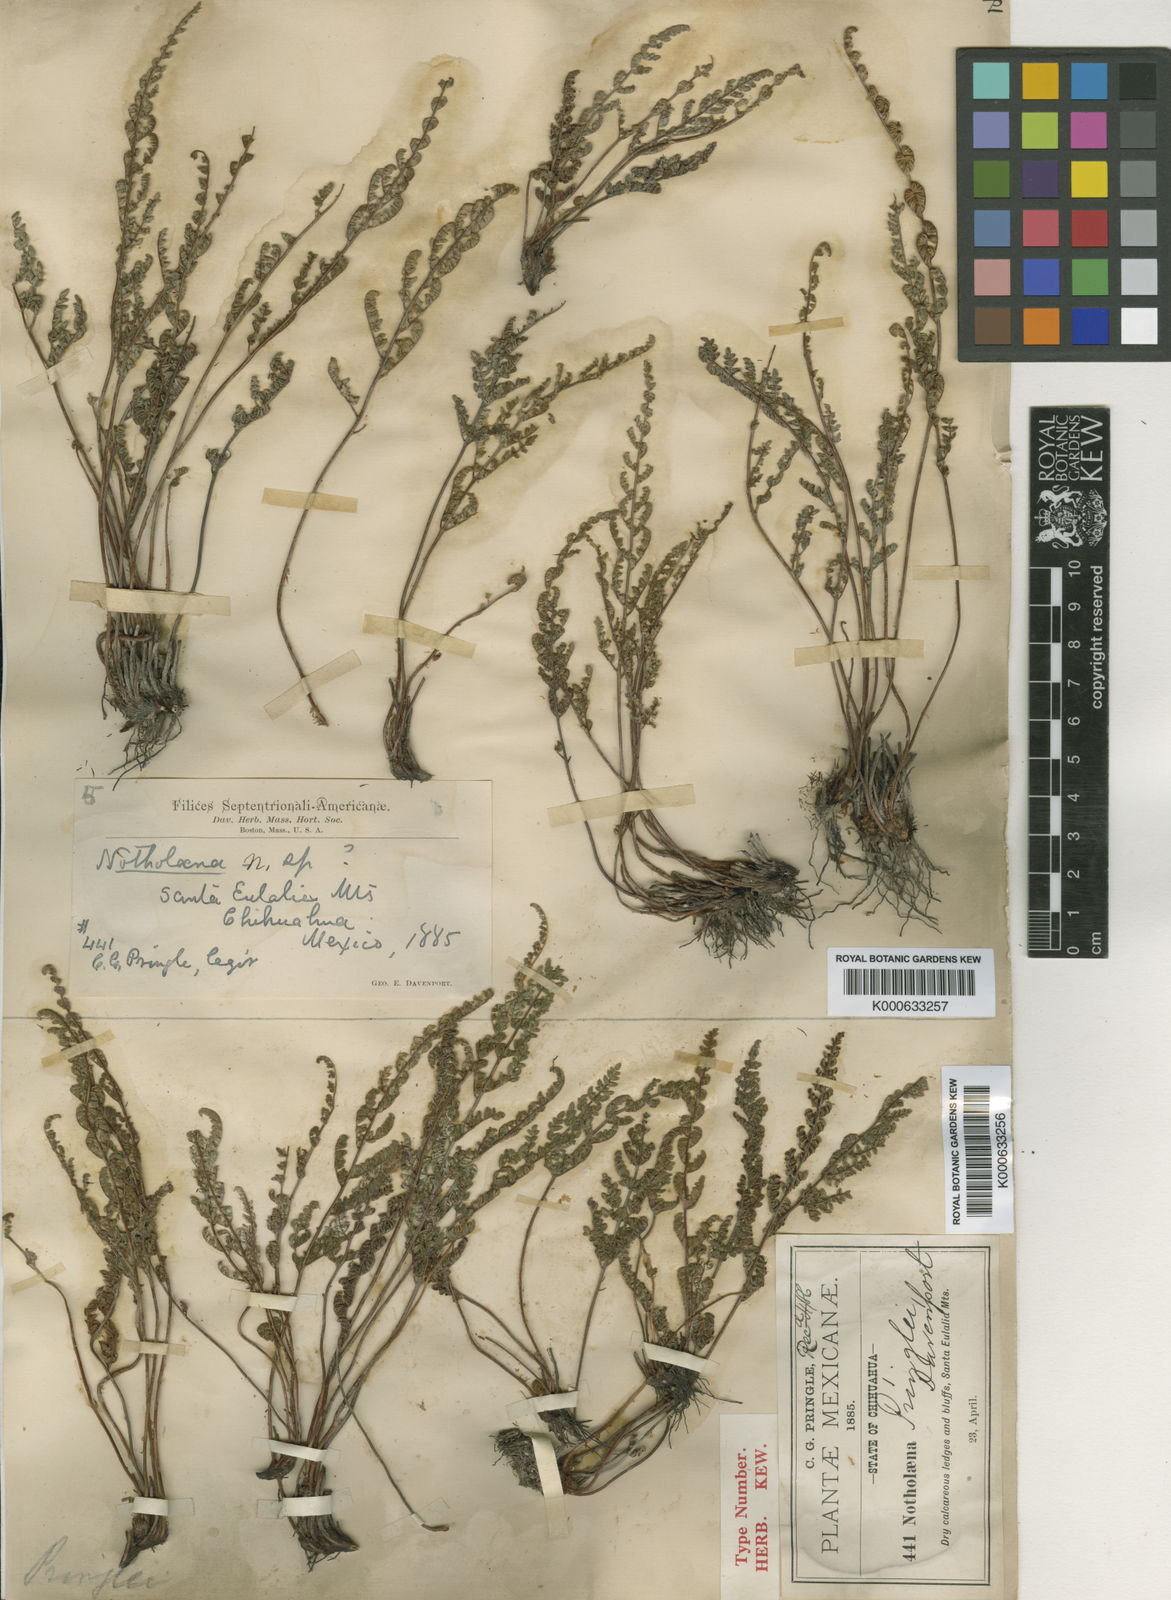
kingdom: Plantae
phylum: Tracheophyta
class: Polypodiopsida
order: Polypodiales
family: Pteridaceae
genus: Myriopteris
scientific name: Myriopteris pringlei
